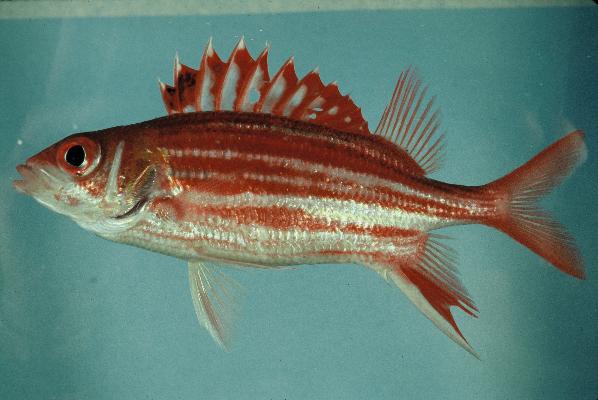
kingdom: Animalia
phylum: Chordata
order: Beryciformes
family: Holocentridae
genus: Sargocentron
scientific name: Sargocentron microstoma
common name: Fine-lined squirrelfish
